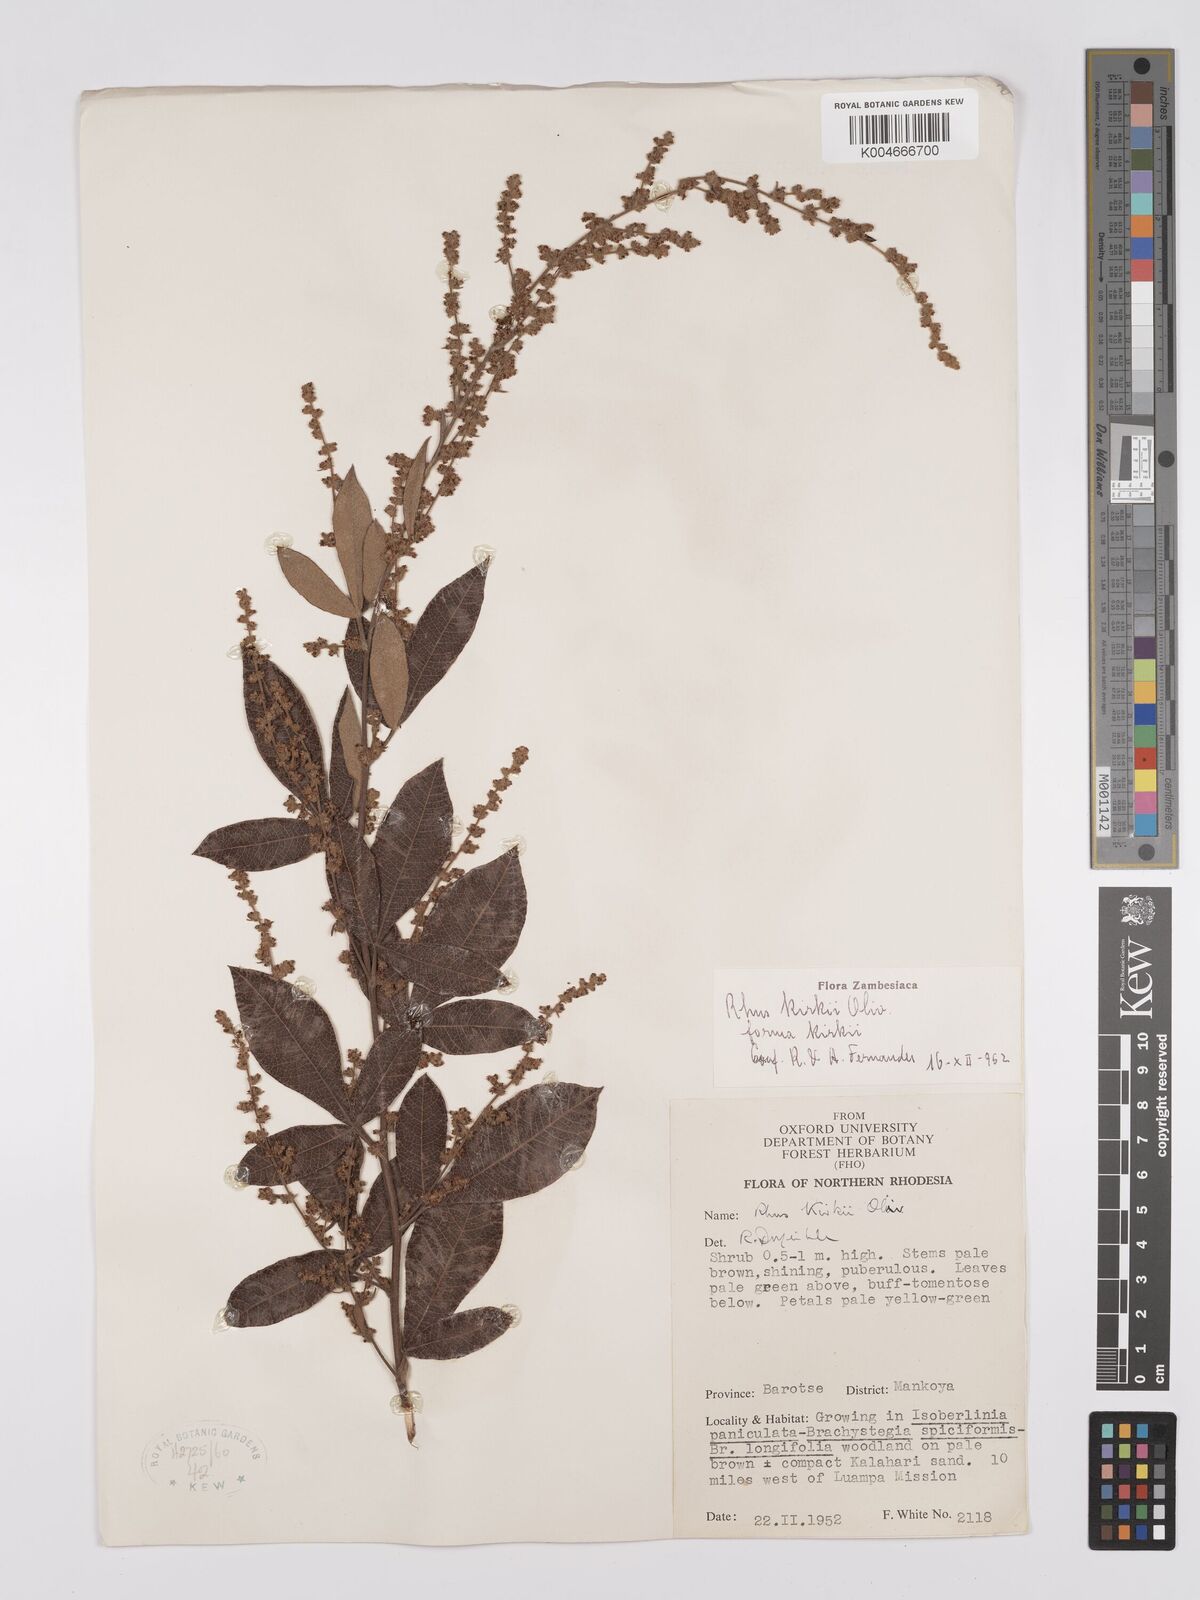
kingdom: Plantae
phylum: Tracheophyta
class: Magnoliopsida
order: Sapindales
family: Anacardiaceae
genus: Searsia
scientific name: Searsia kirkii
